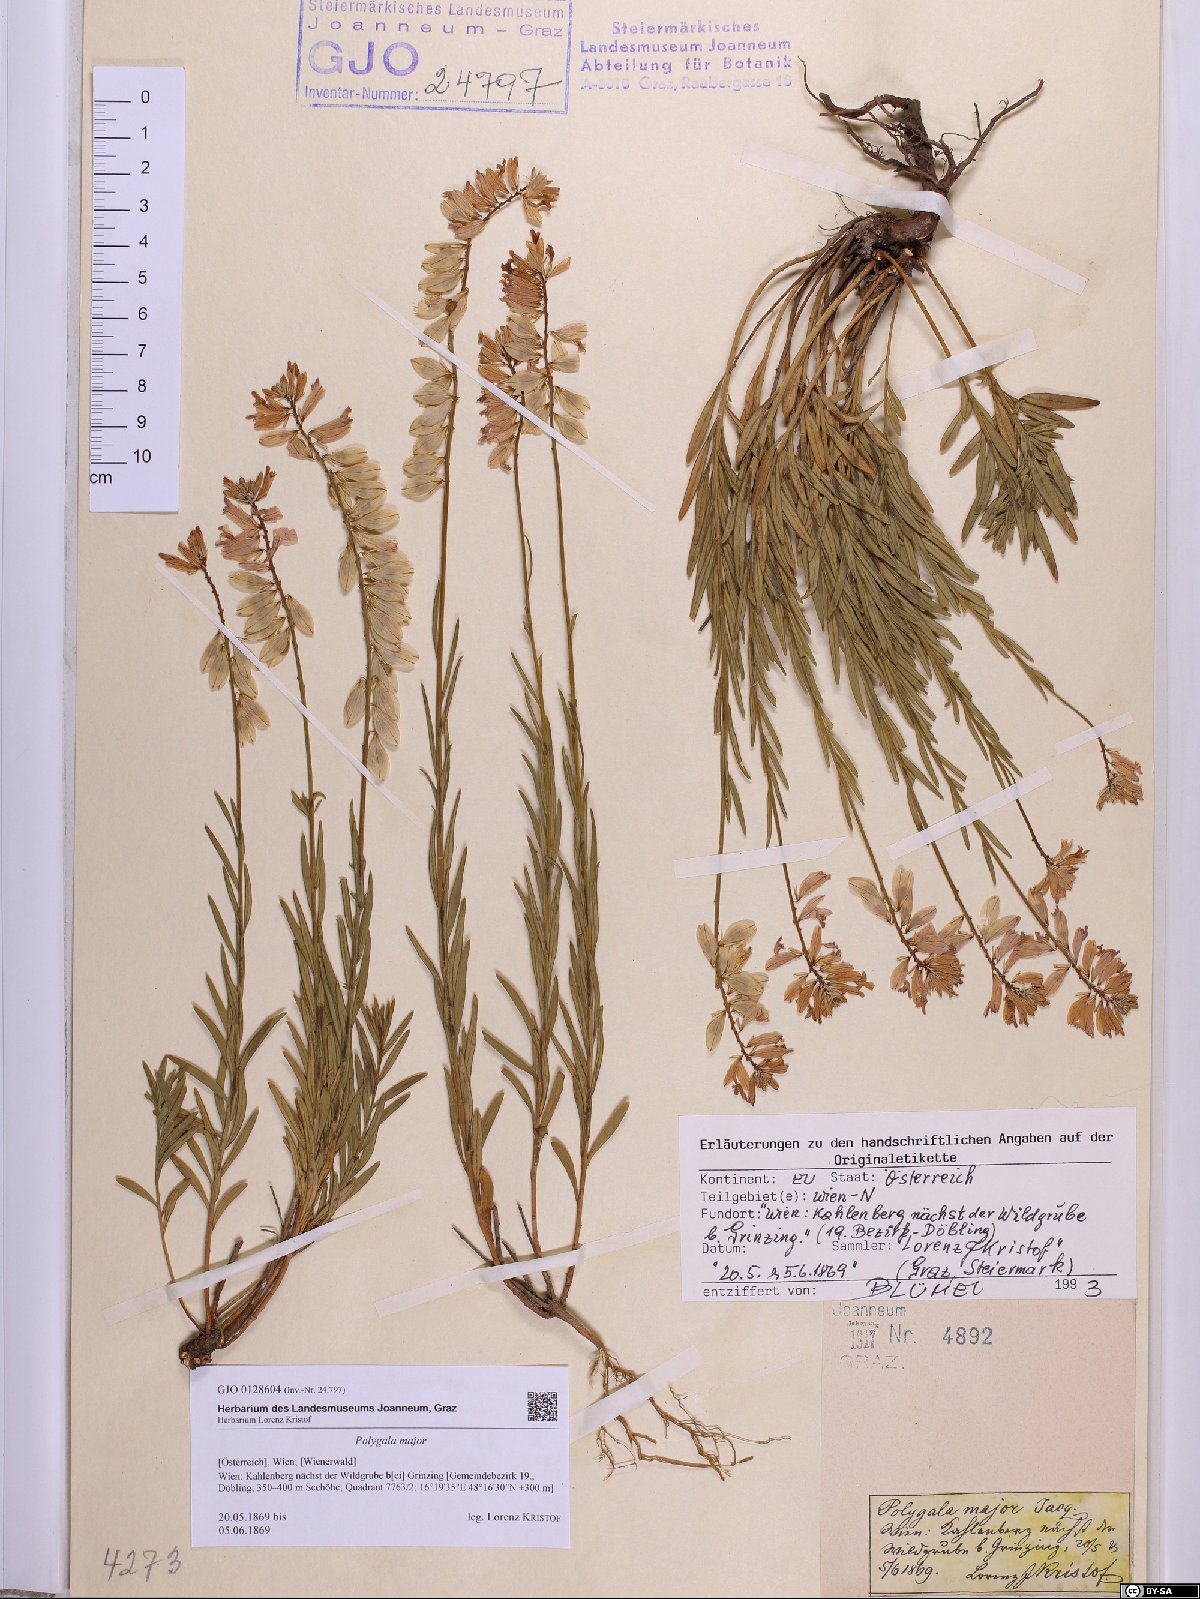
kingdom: Plantae
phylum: Tracheophyta
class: Magnoliopsida
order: Fabales
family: Polygalaceae
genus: Polygala
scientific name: Polygala major
